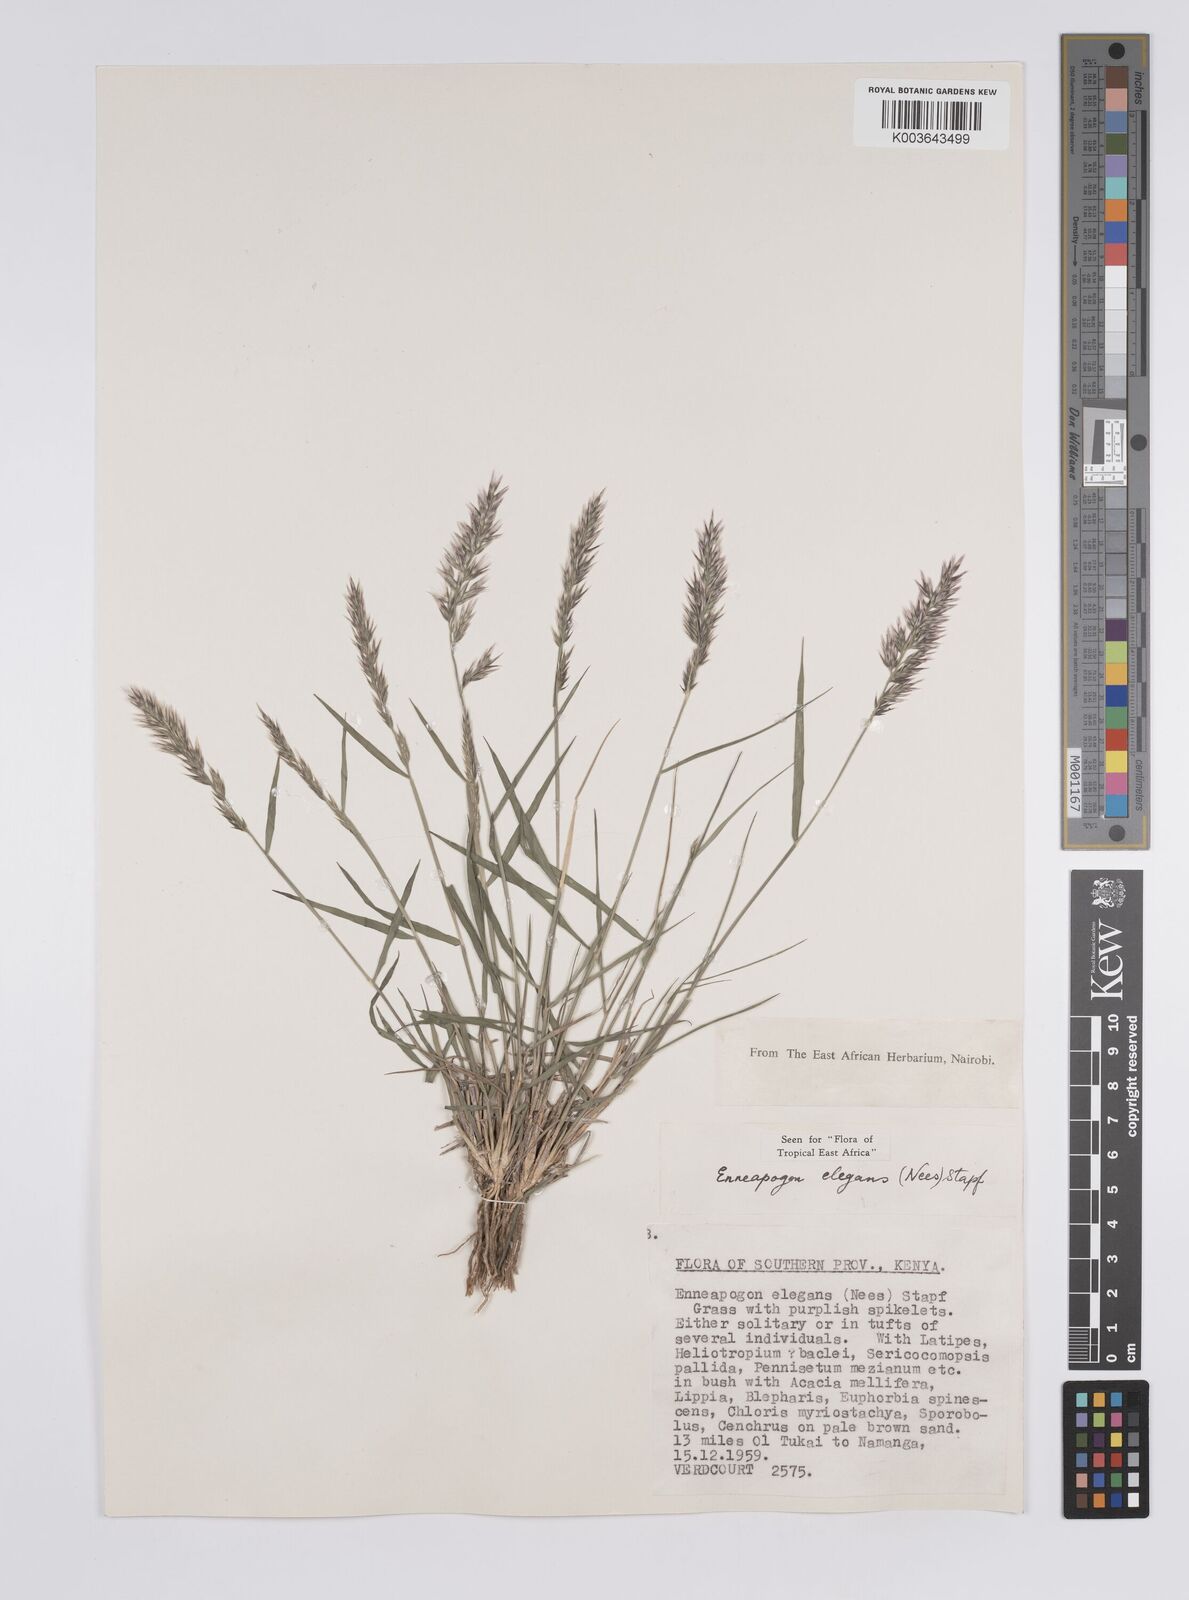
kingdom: Plantae
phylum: Tracheophyta
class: Liliopsida
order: Poales
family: Poaceae
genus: Enneapogon
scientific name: Enneapogon persicus
